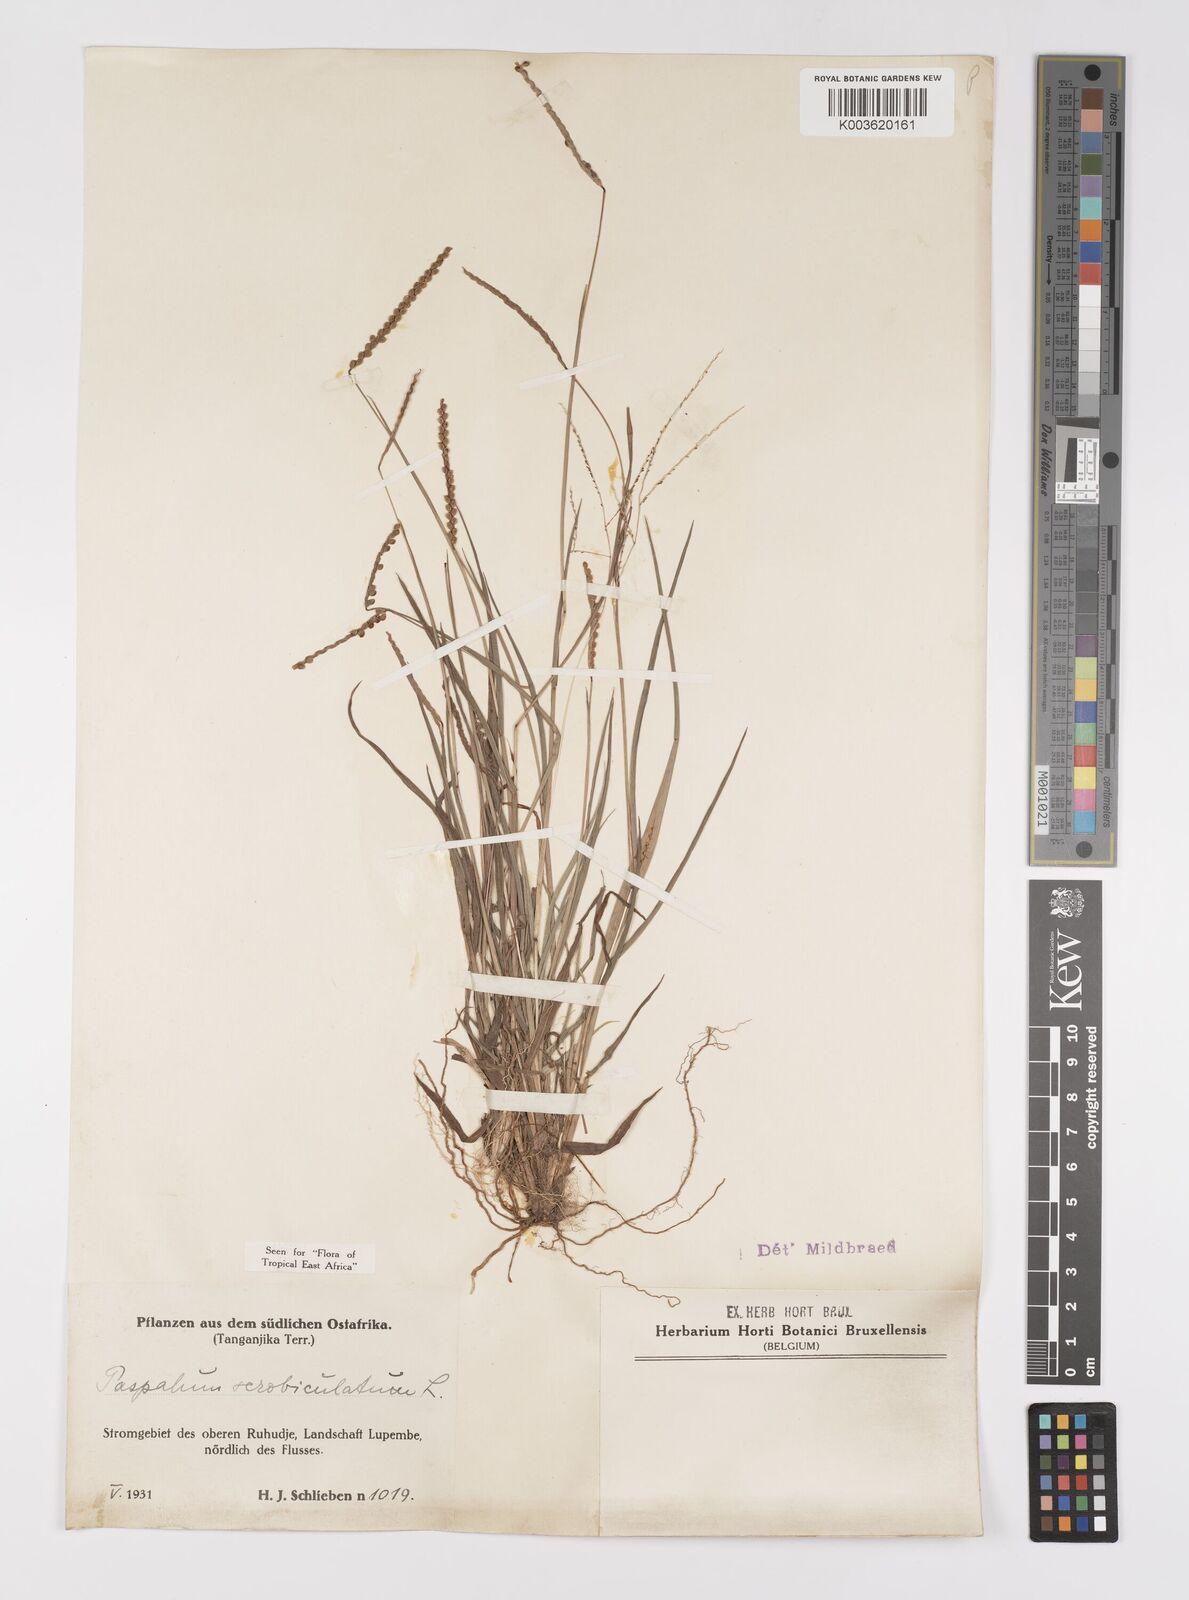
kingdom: Plantae
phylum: Tracheophyta
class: Liliopsida
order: Poales
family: Poaceae
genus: Paspalum
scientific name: Paspalum scrobiculatum
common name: Kodo millet
